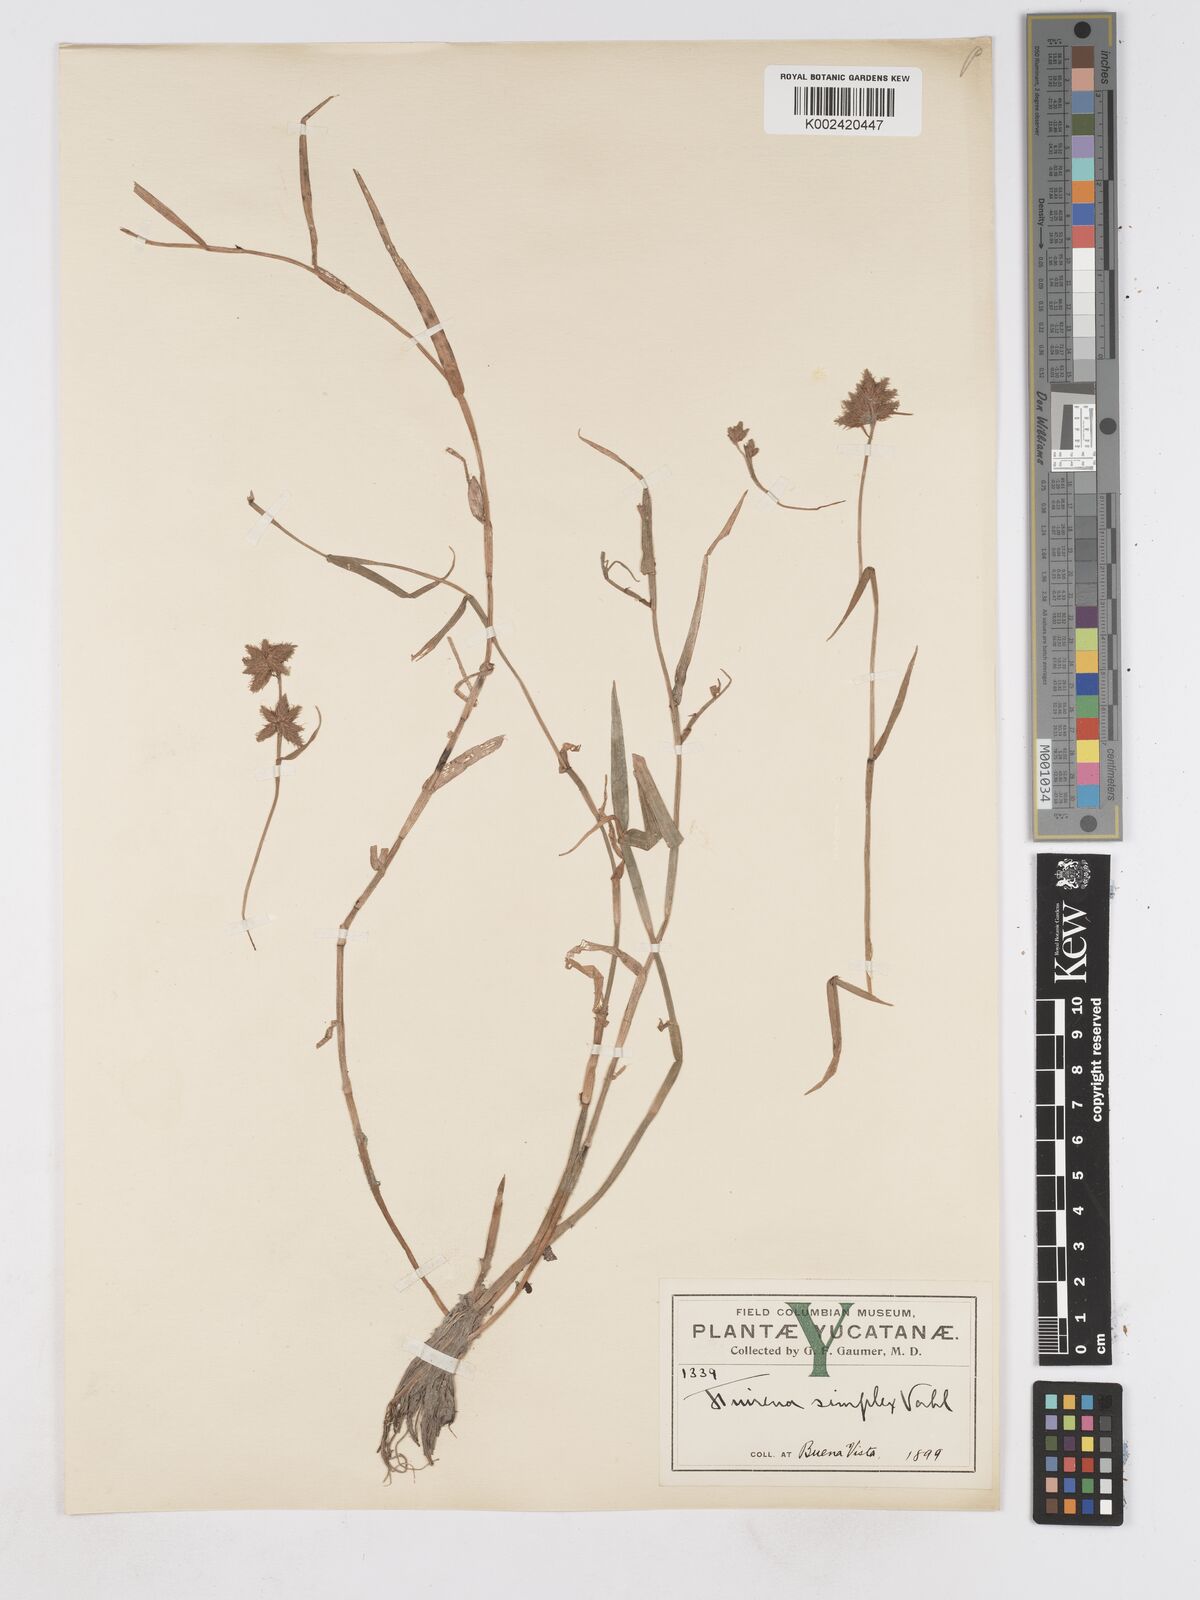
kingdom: Plantae
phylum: Tracheophyta
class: Liliopsida
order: Poales
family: Cyperaceae
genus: Fuirena
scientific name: Fuirena simplex
